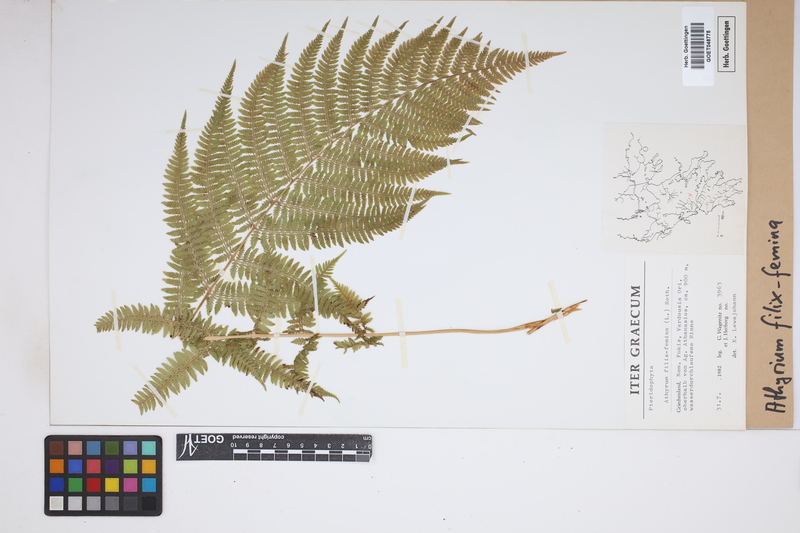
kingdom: Plantae
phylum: Tracheophyta
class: Polypodiopsida
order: Polypodiales
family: Athyriaceae
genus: Athyrium
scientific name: Athyrium filix-femina
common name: Lady fern
